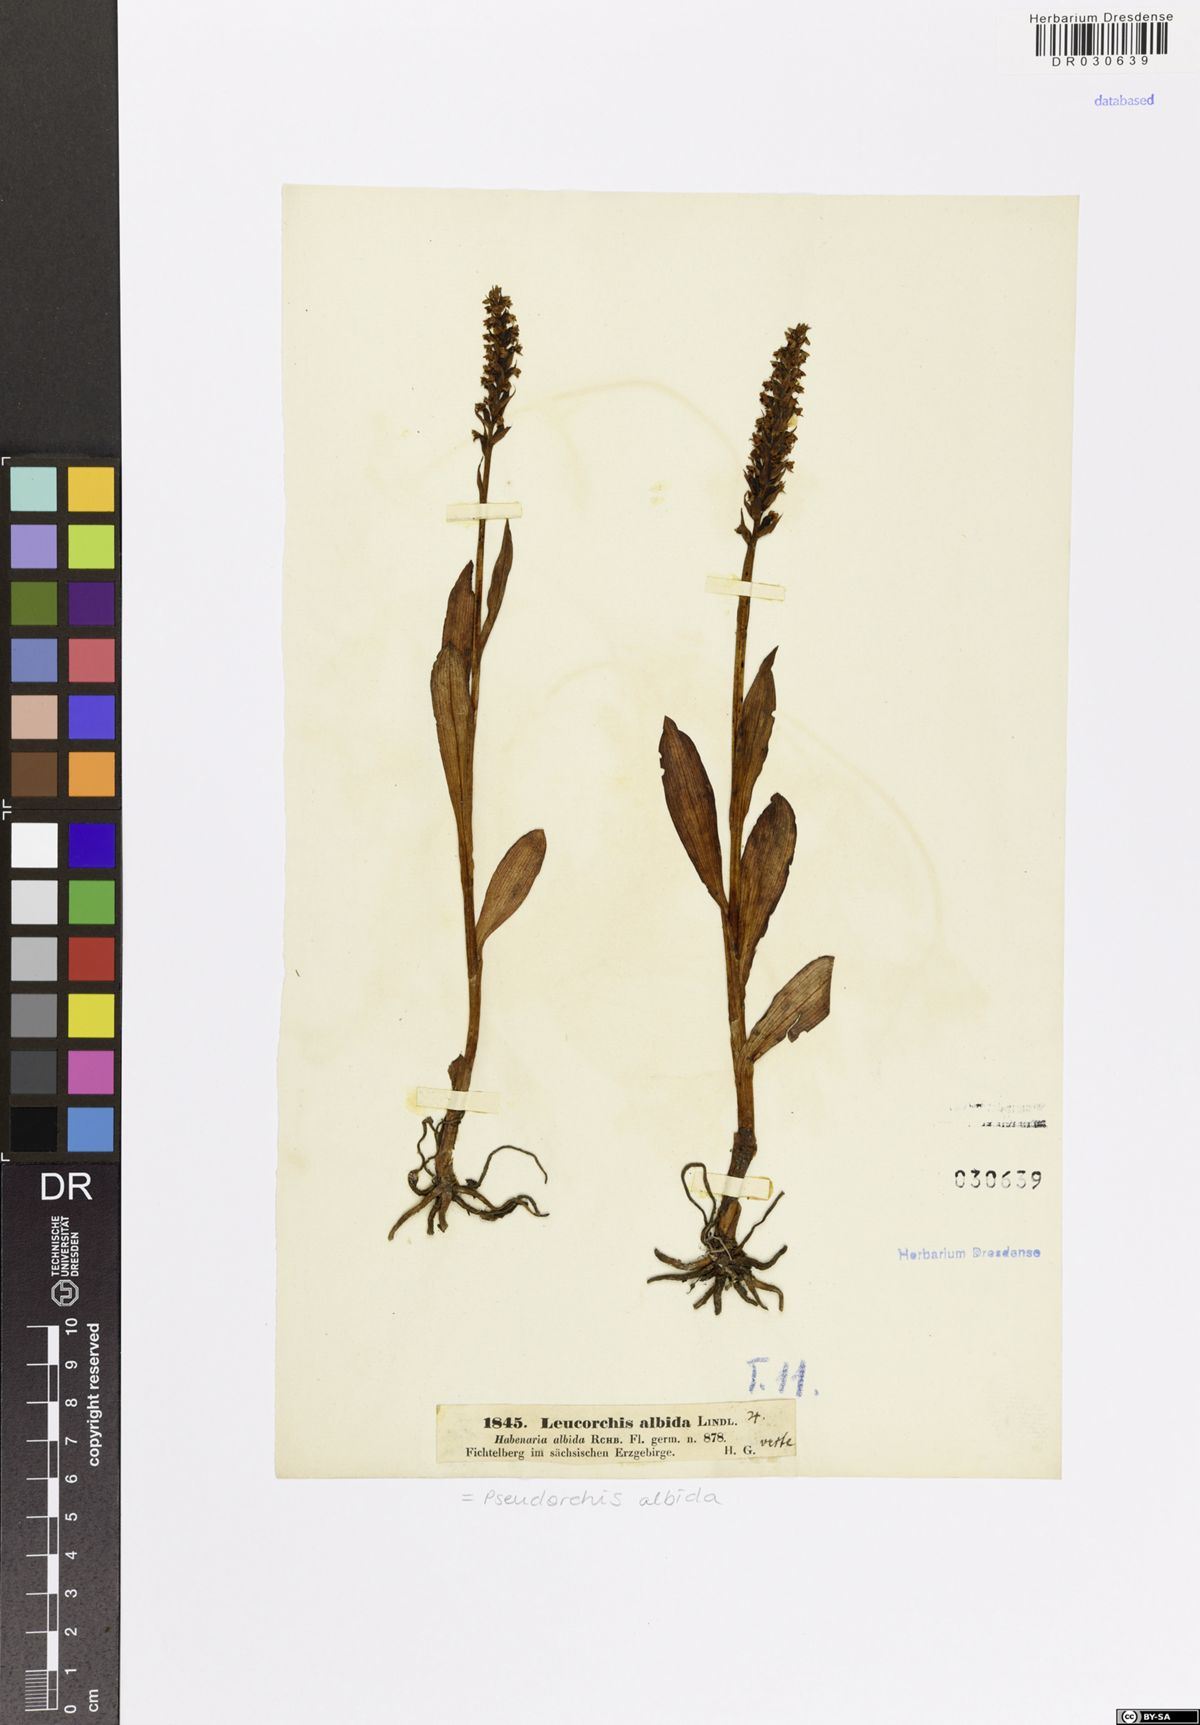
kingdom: Plantae
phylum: Tracheophyta
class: Liliopsida
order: Asparagales
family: Orchidaceae
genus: Pseudorchis
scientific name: Pseudorchis albida
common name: Small-white orchid
